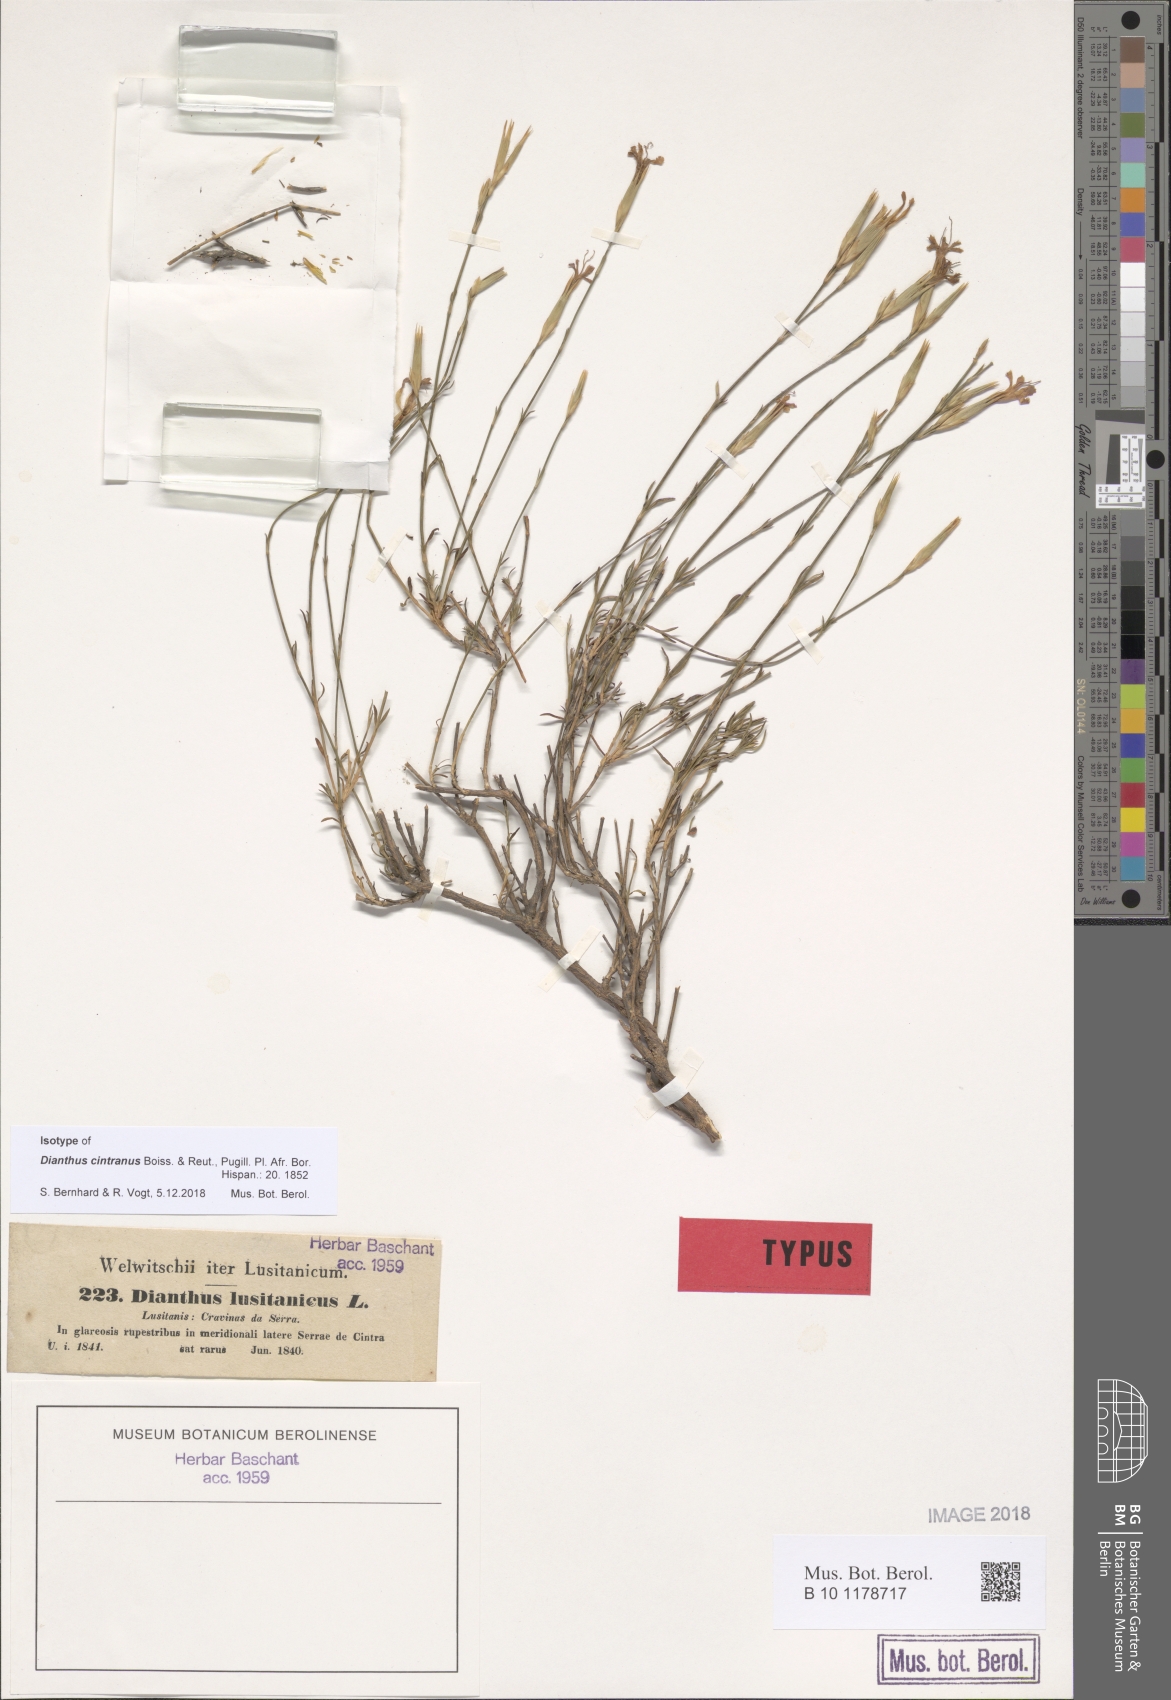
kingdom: Plantae
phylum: Tracheophyta
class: Magnoliopsida
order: Caryophyllales
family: Caryophyllaceae
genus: Dianthus
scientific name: Dianthus cintranus
